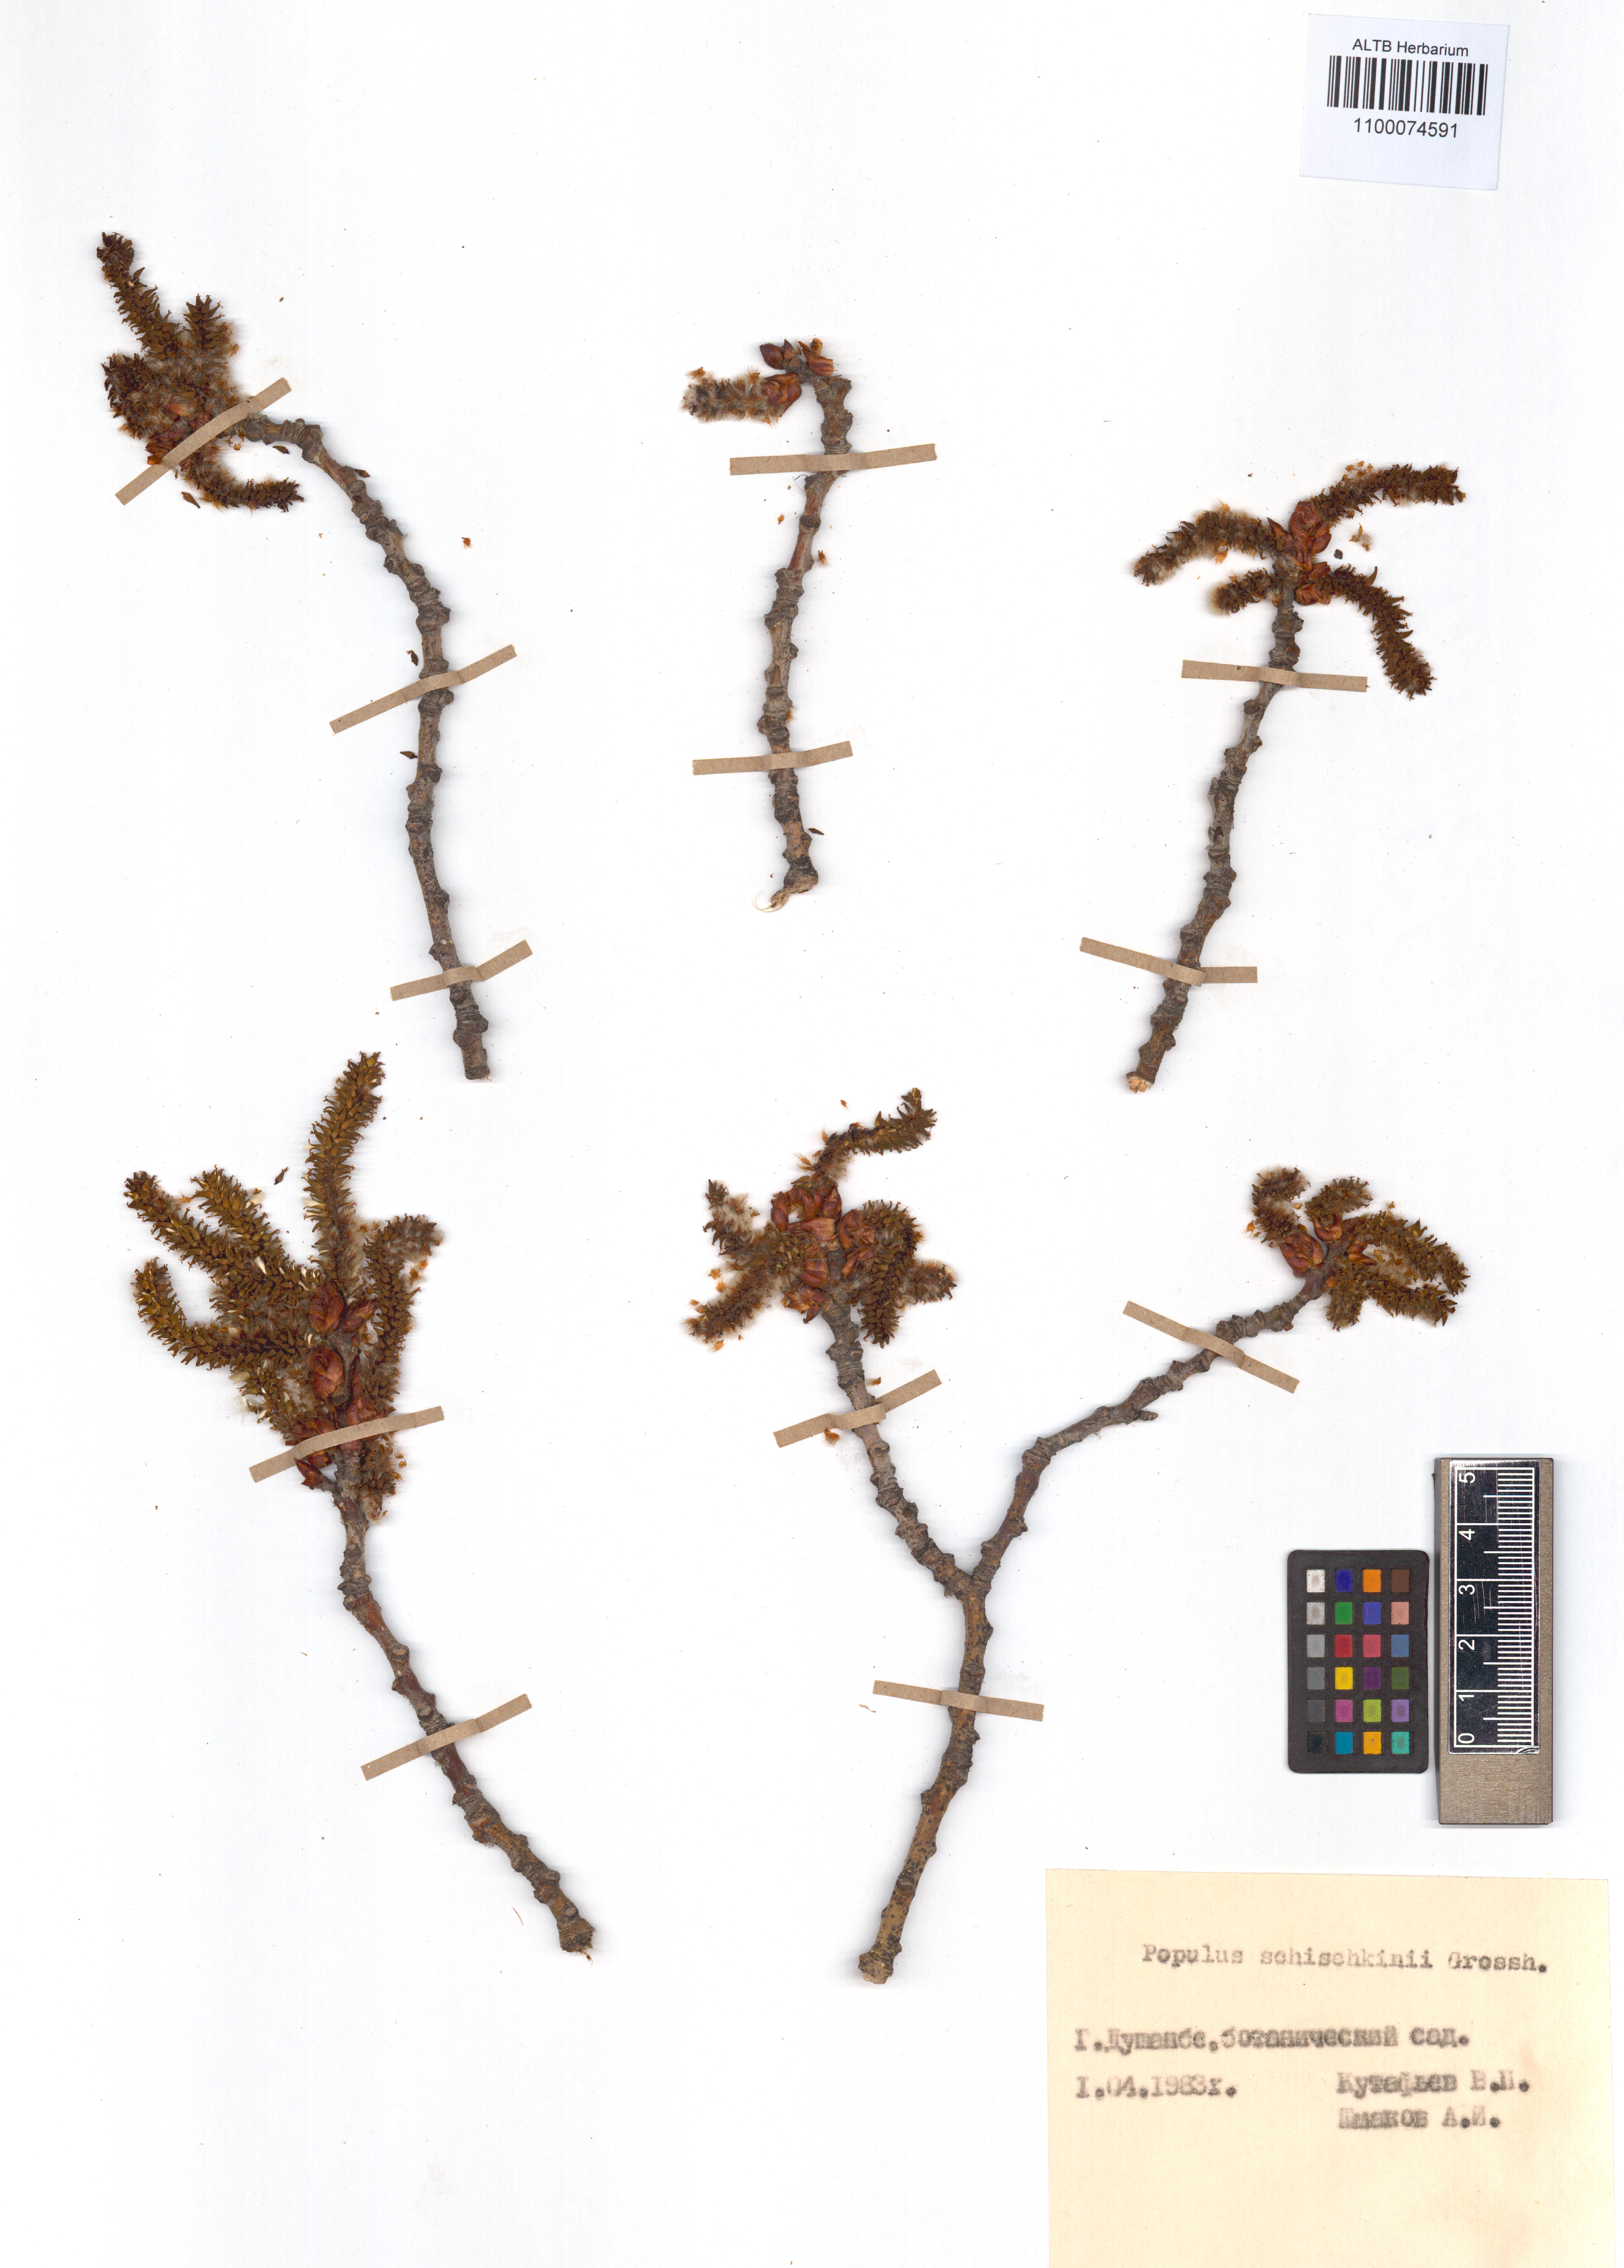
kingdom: Plantae
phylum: Tracheophyta
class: Magnoliopsida
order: Malpighiales
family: Salicaceae
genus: Populus
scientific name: Populus canescens
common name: Gray poplar
